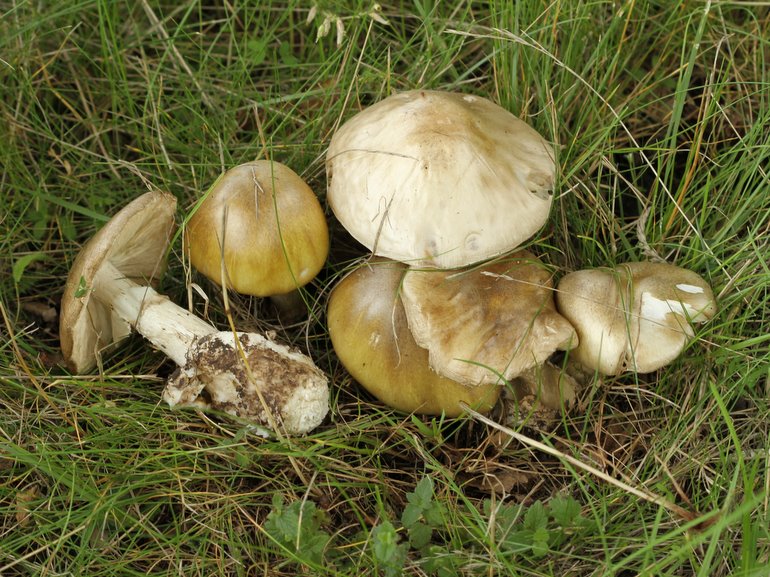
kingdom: Fungi
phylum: Basidiomycota
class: Agaricomycetes
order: Agaricales
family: Amanitaceae
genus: Amanita
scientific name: Amanita phalloides
